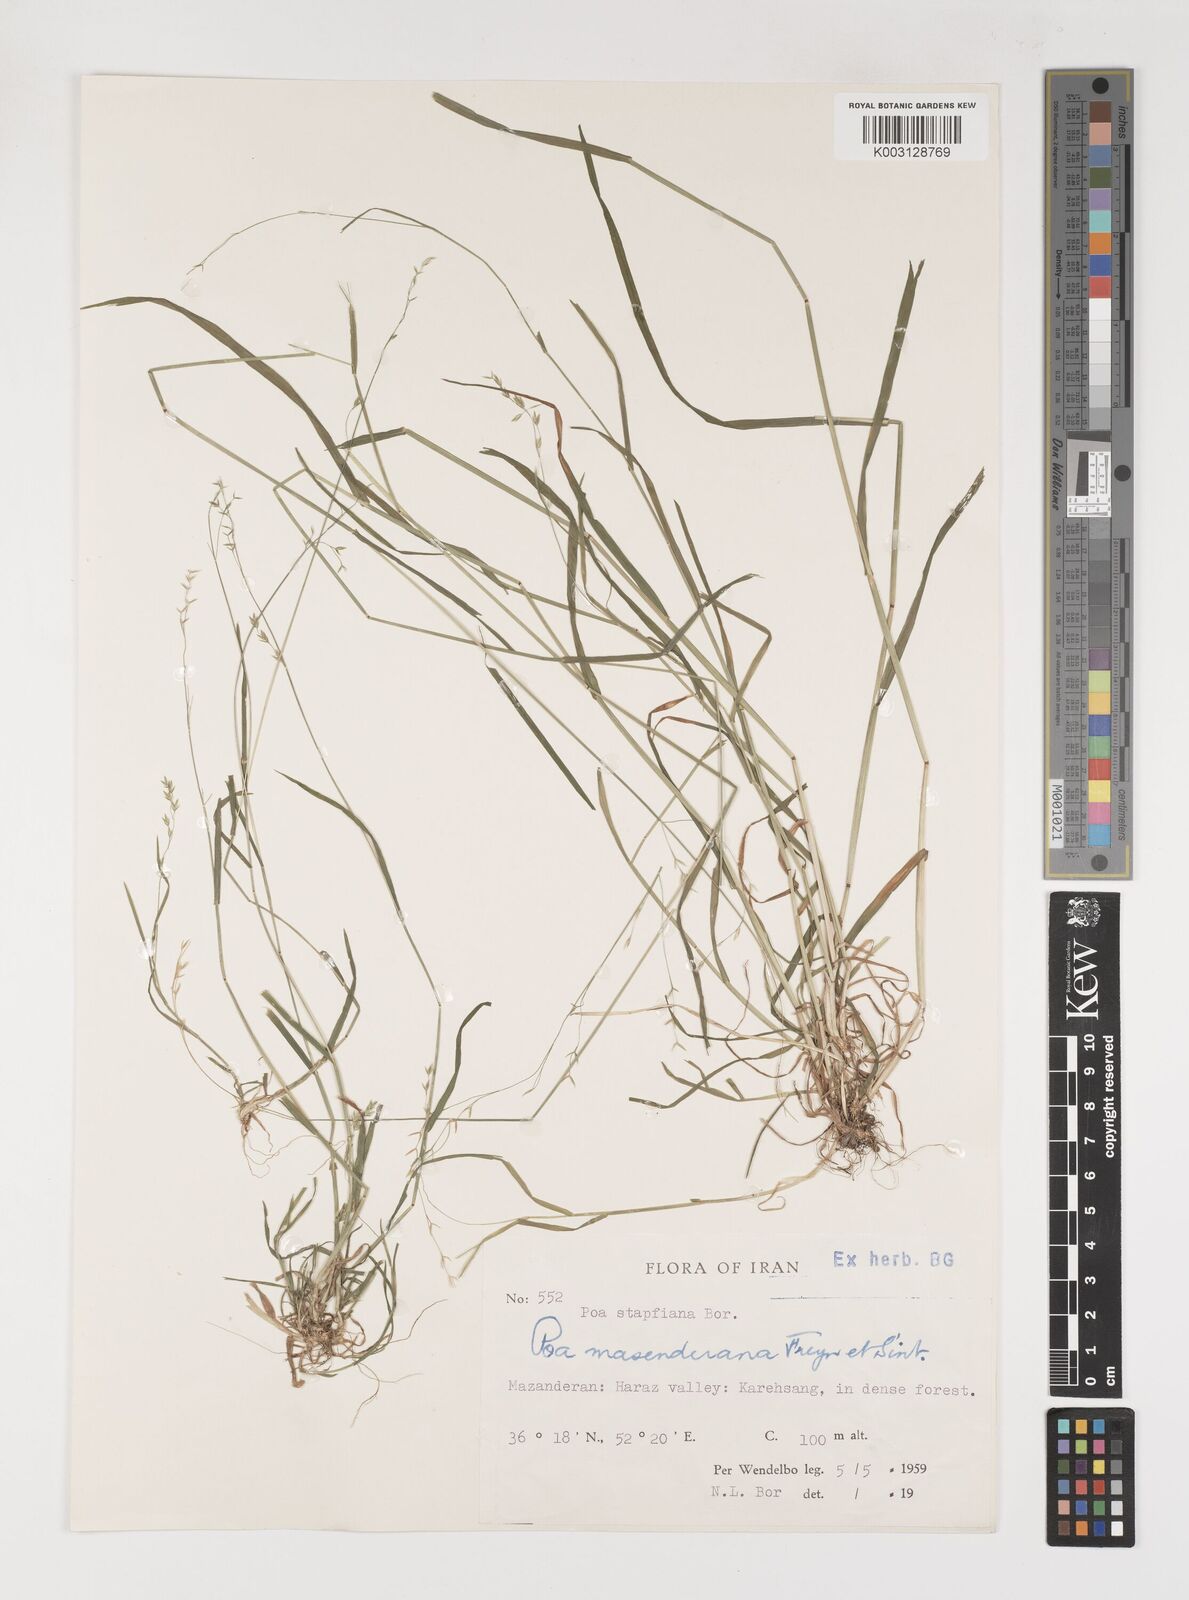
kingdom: Plantae
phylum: Tracheophyta
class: Liliopsida
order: Poales
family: Poaceae
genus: Poa
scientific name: Poa masenderana
